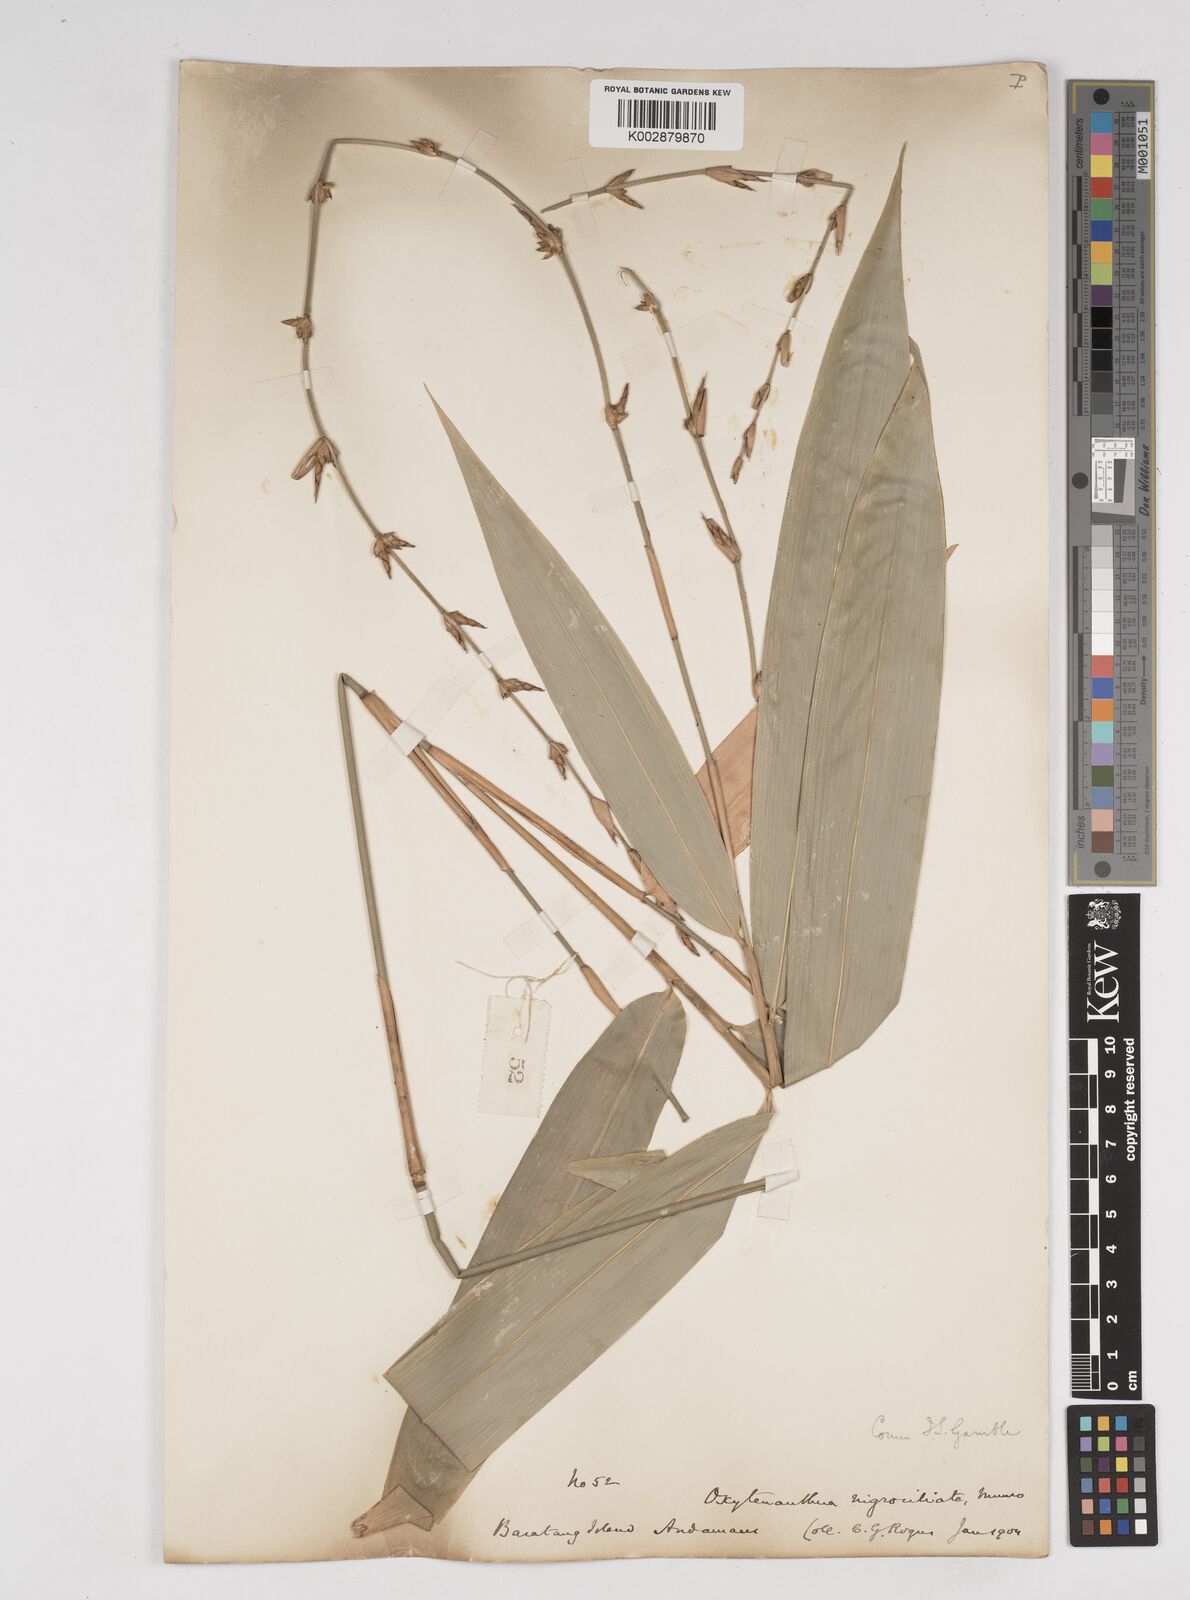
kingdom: Plantae
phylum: Tracheophyta
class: Liliopsida
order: Poales
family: Poaceae
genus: Gigantochloa
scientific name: Gigantochloa
